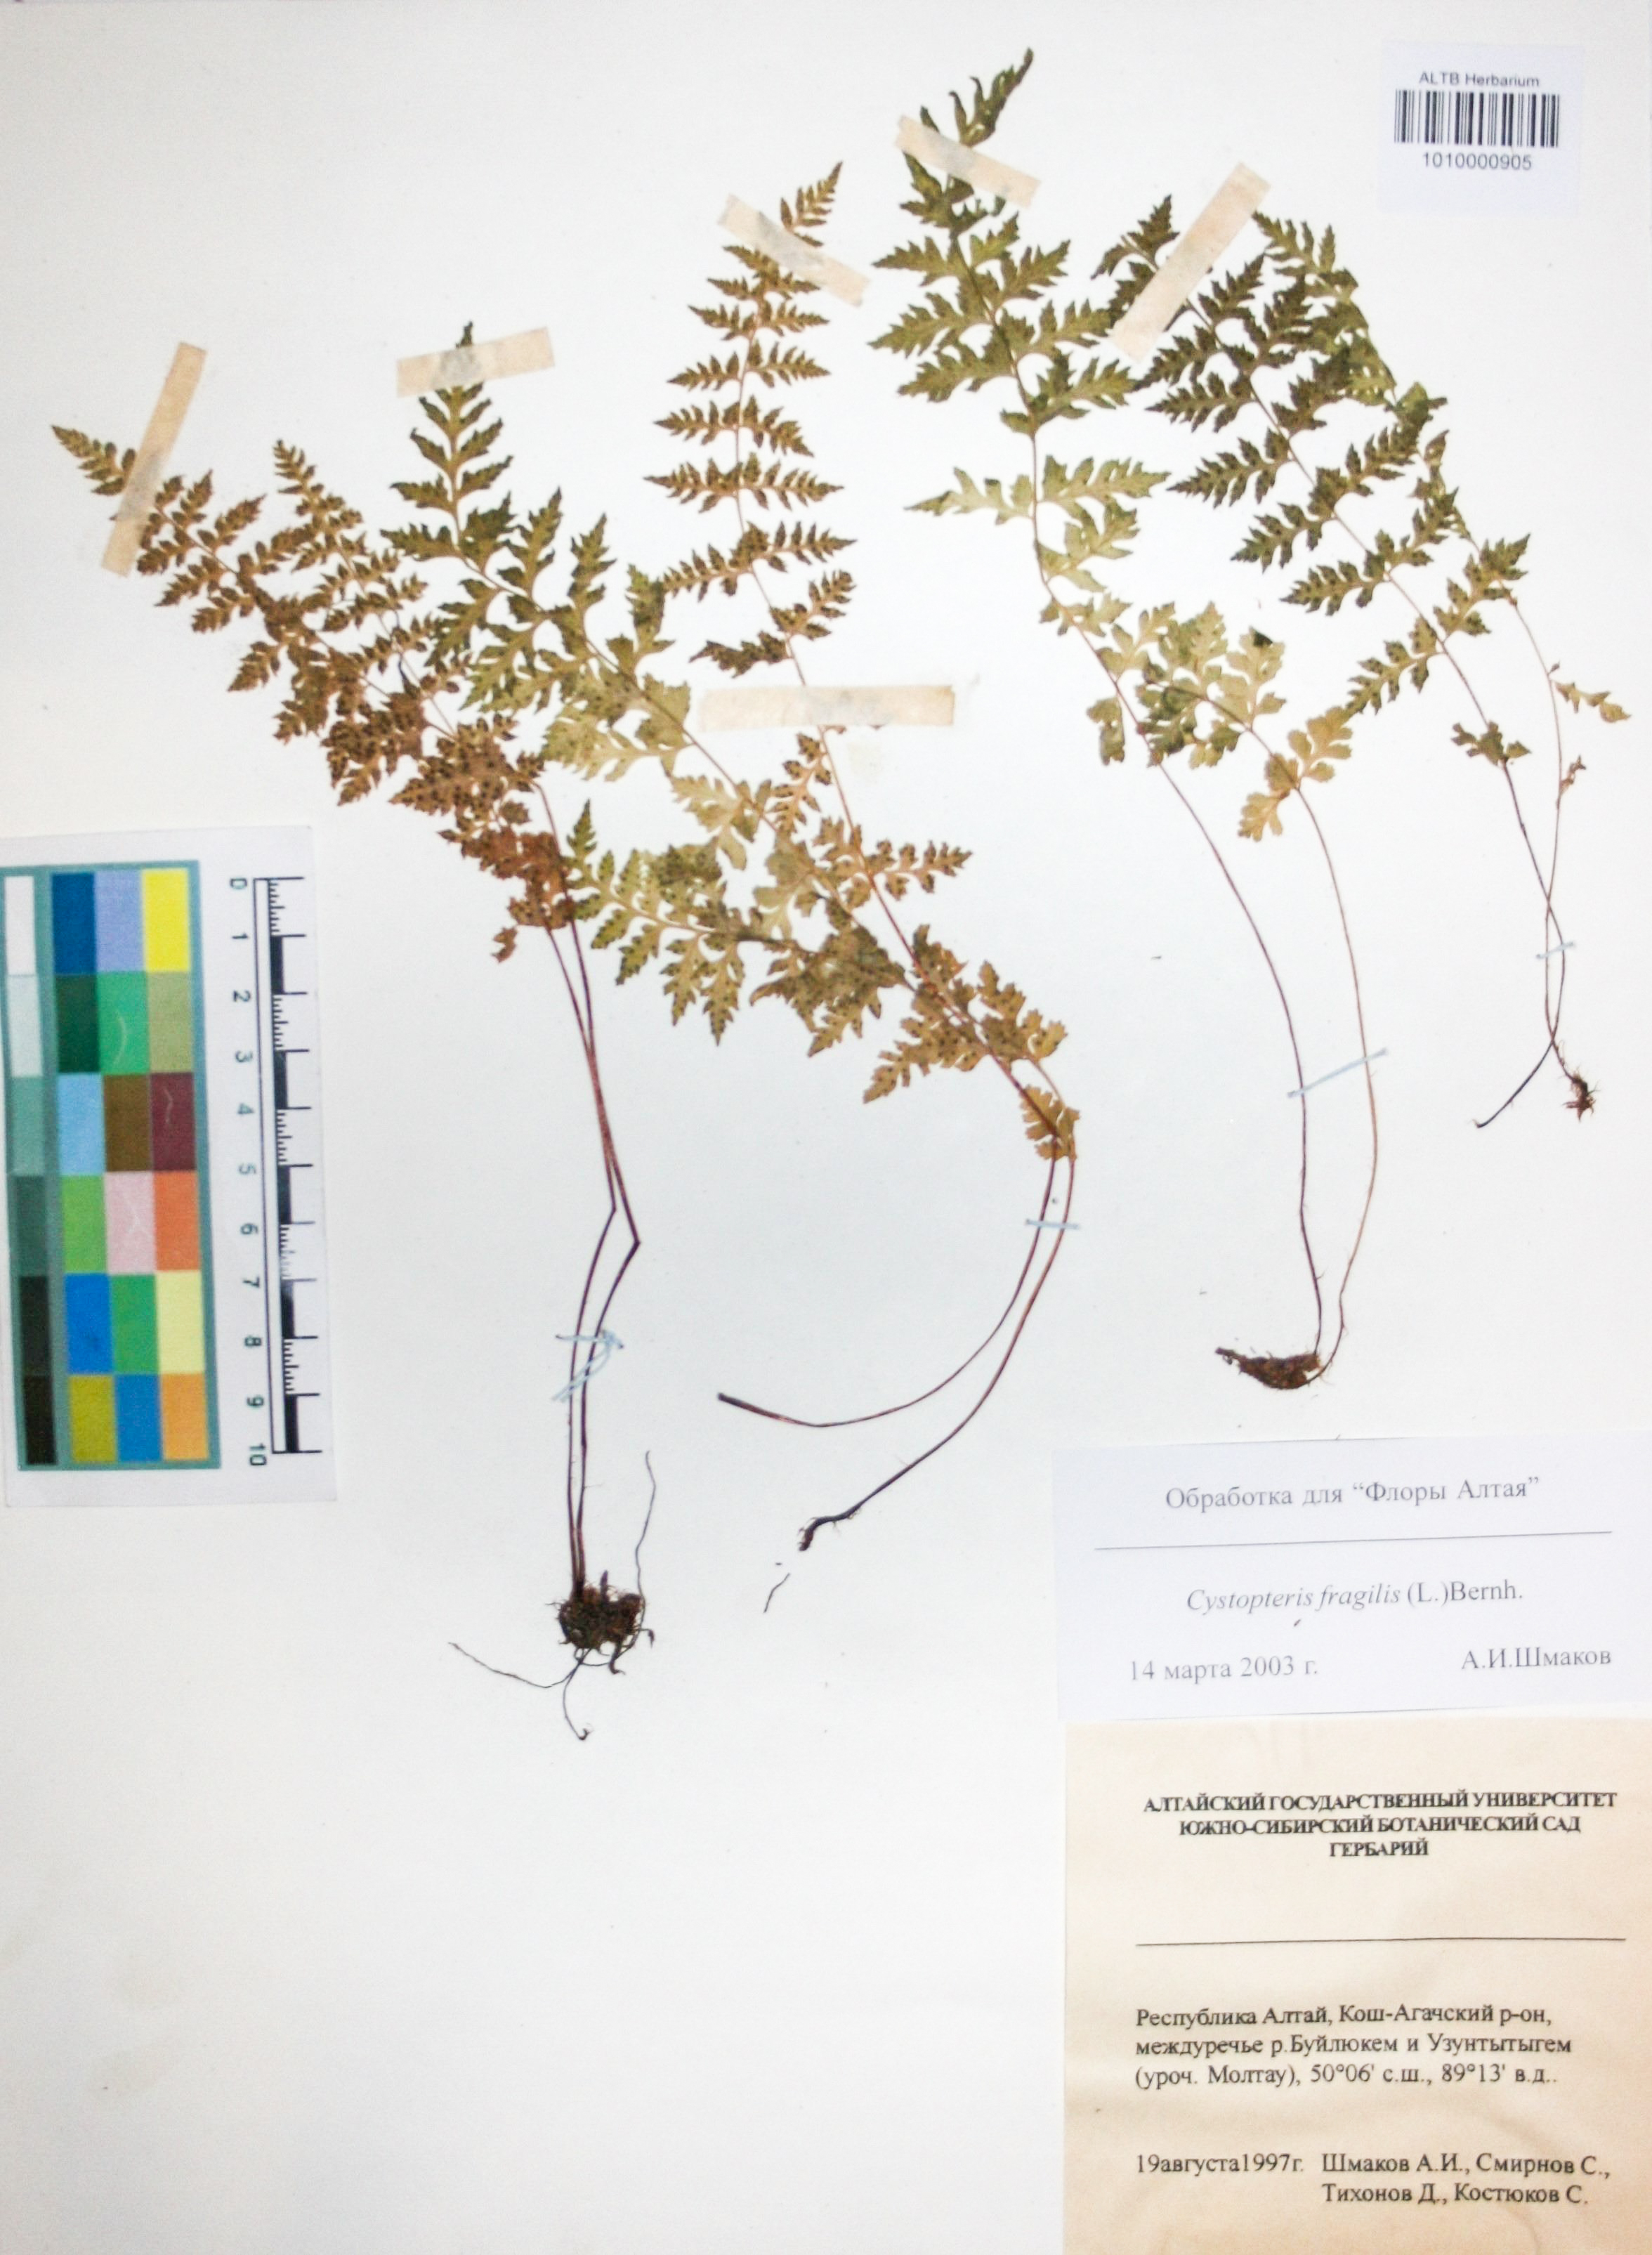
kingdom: Plantae
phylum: Tracheophyta
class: Polypodiopsida
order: Polypodiales
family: Cystopteridaceae
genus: Cystopteris
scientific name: Cystopteris fragilis
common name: Brittle bladder fern
